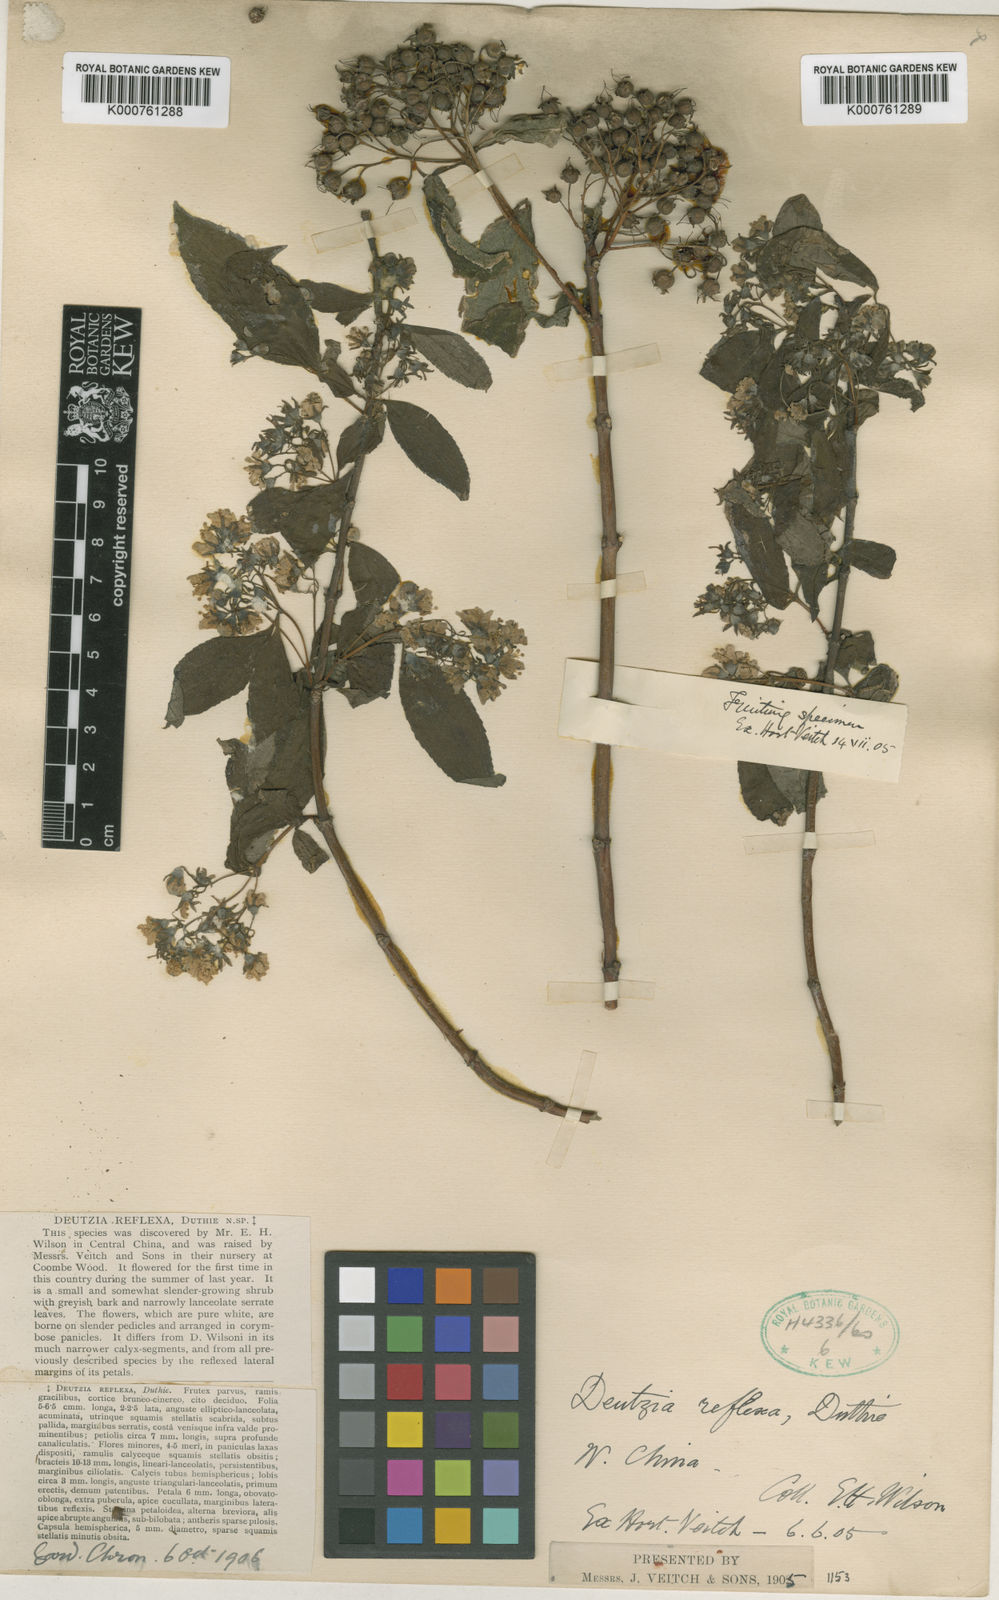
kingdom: Plantae
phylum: Tracheophyta
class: Magnoliopsida
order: Cornales
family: Hydrangeaceae
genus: Deutzia
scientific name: Deutzia discolor
